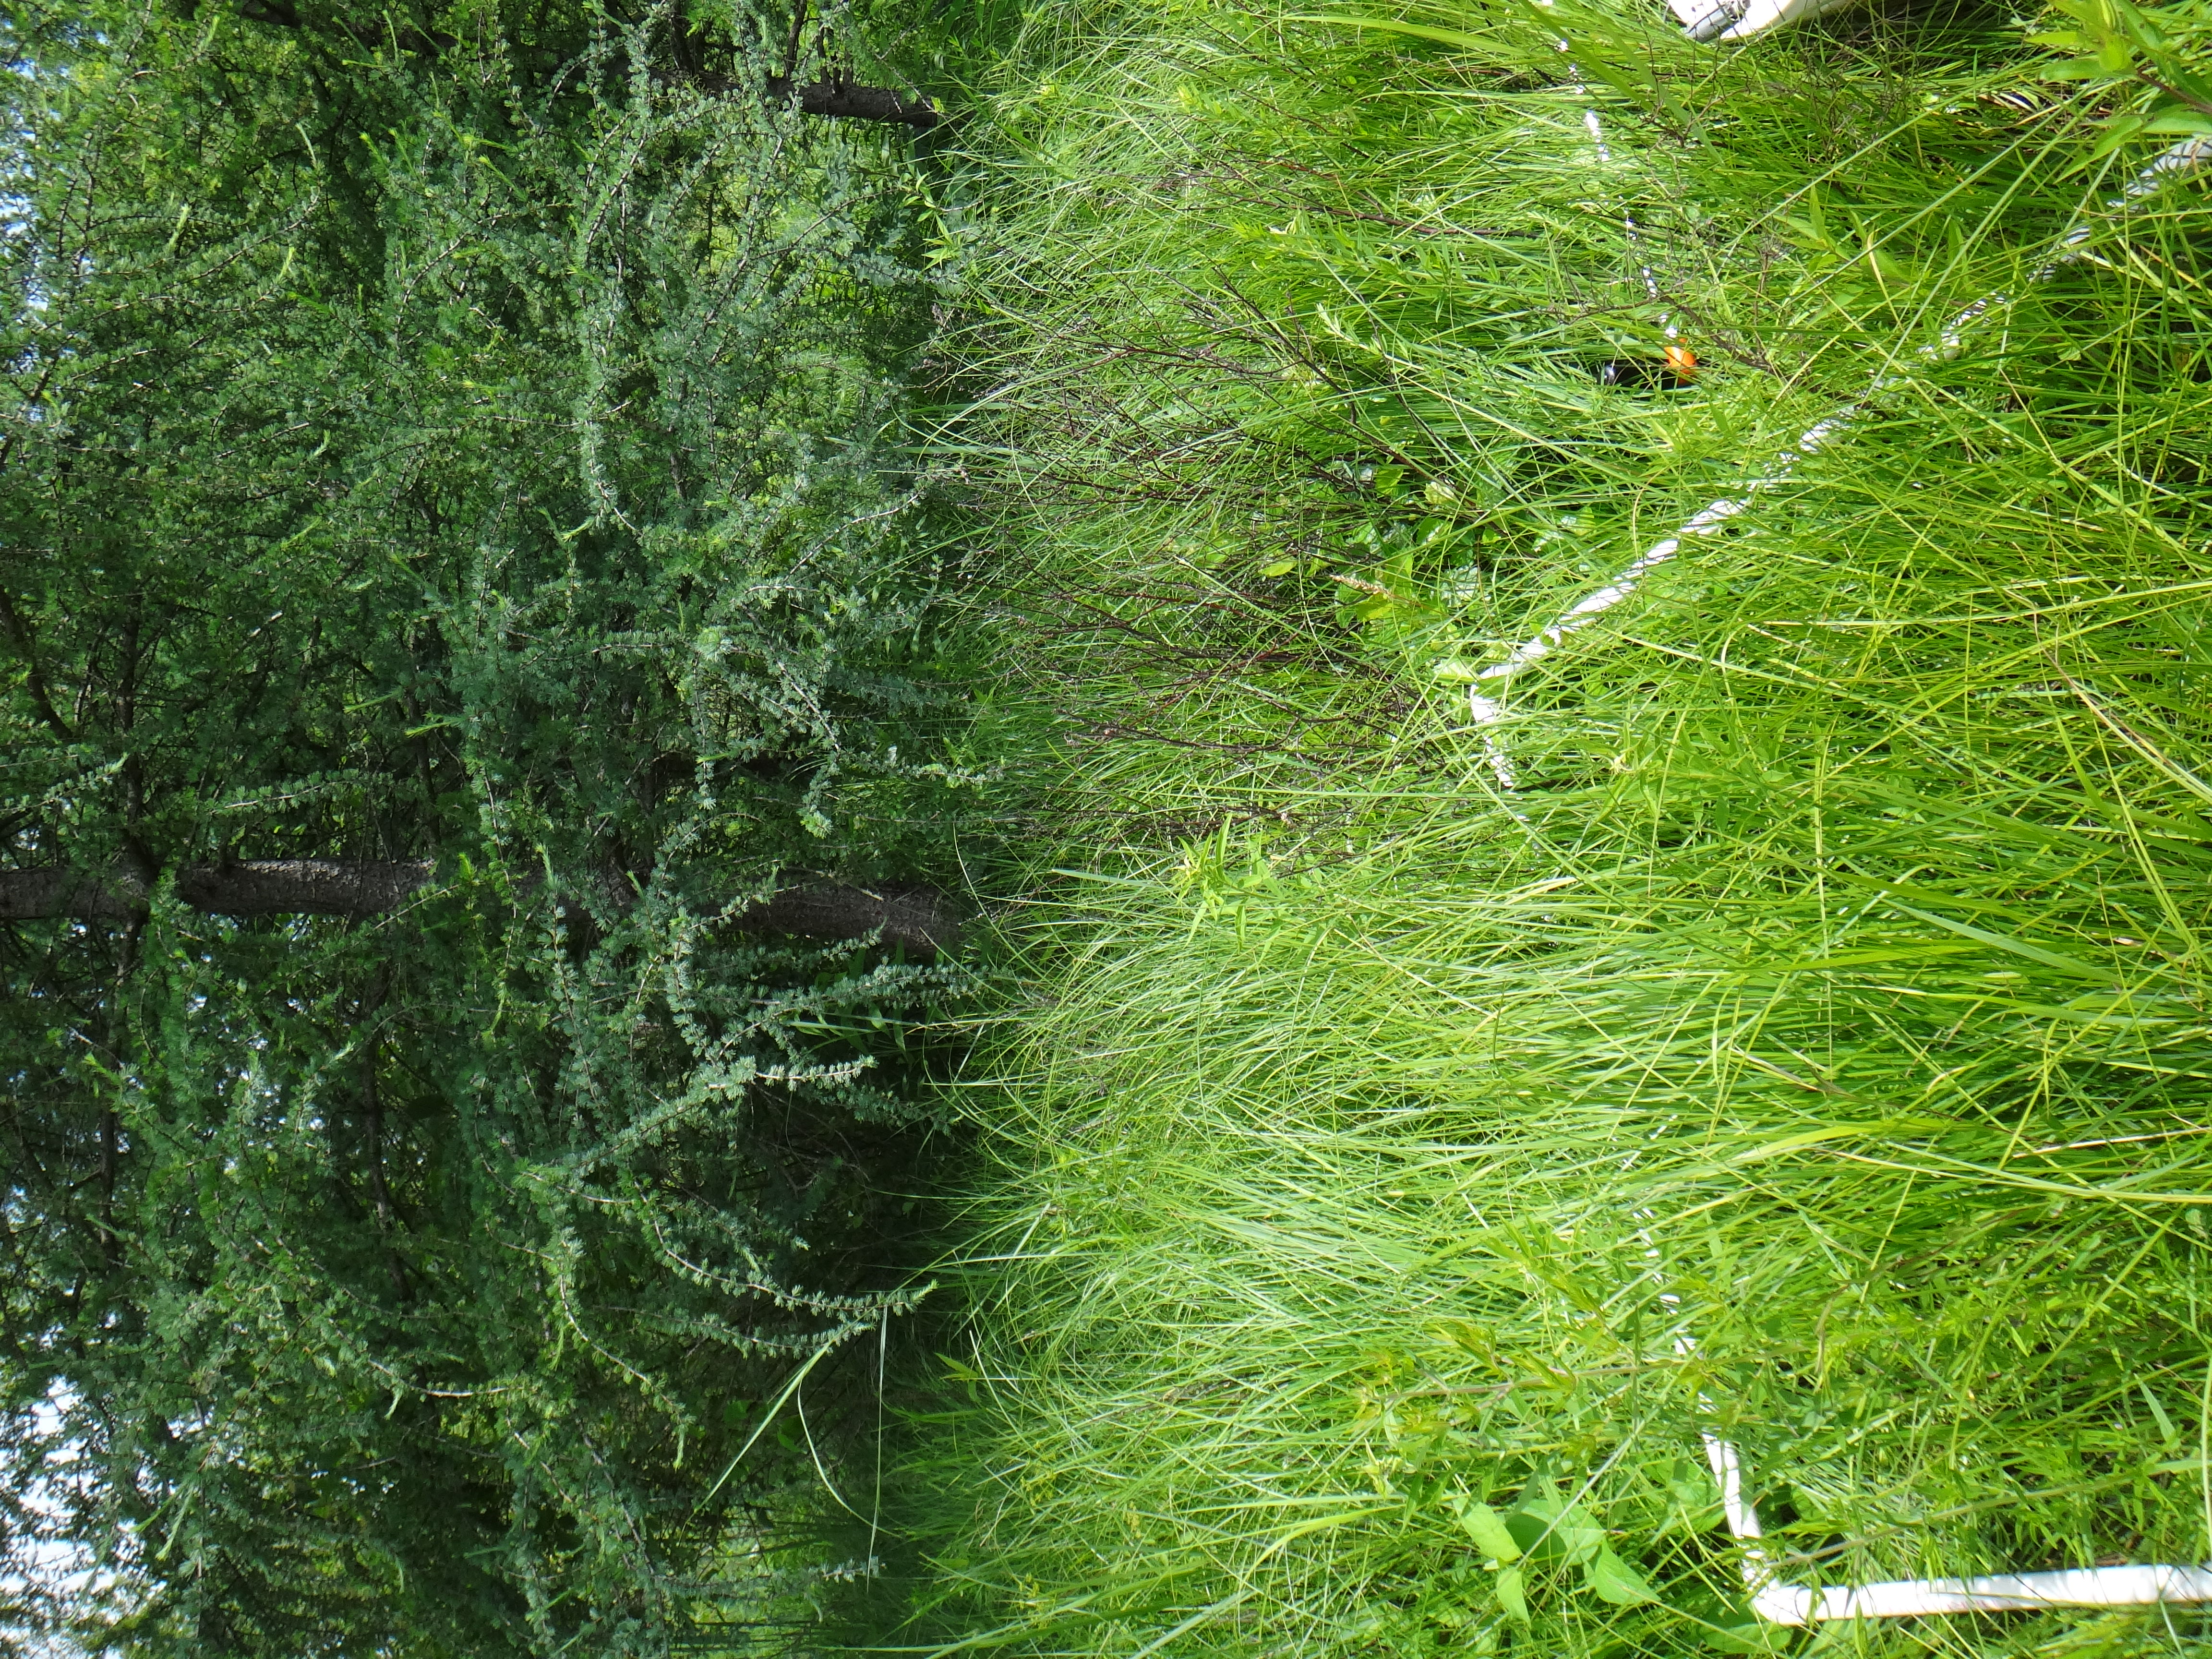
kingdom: Plantae
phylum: Tracheophyta
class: Magnoliopsida
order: Asterales
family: Asteraceae
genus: Solidago
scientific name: Solidago gigantea
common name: Giant goldenrod
